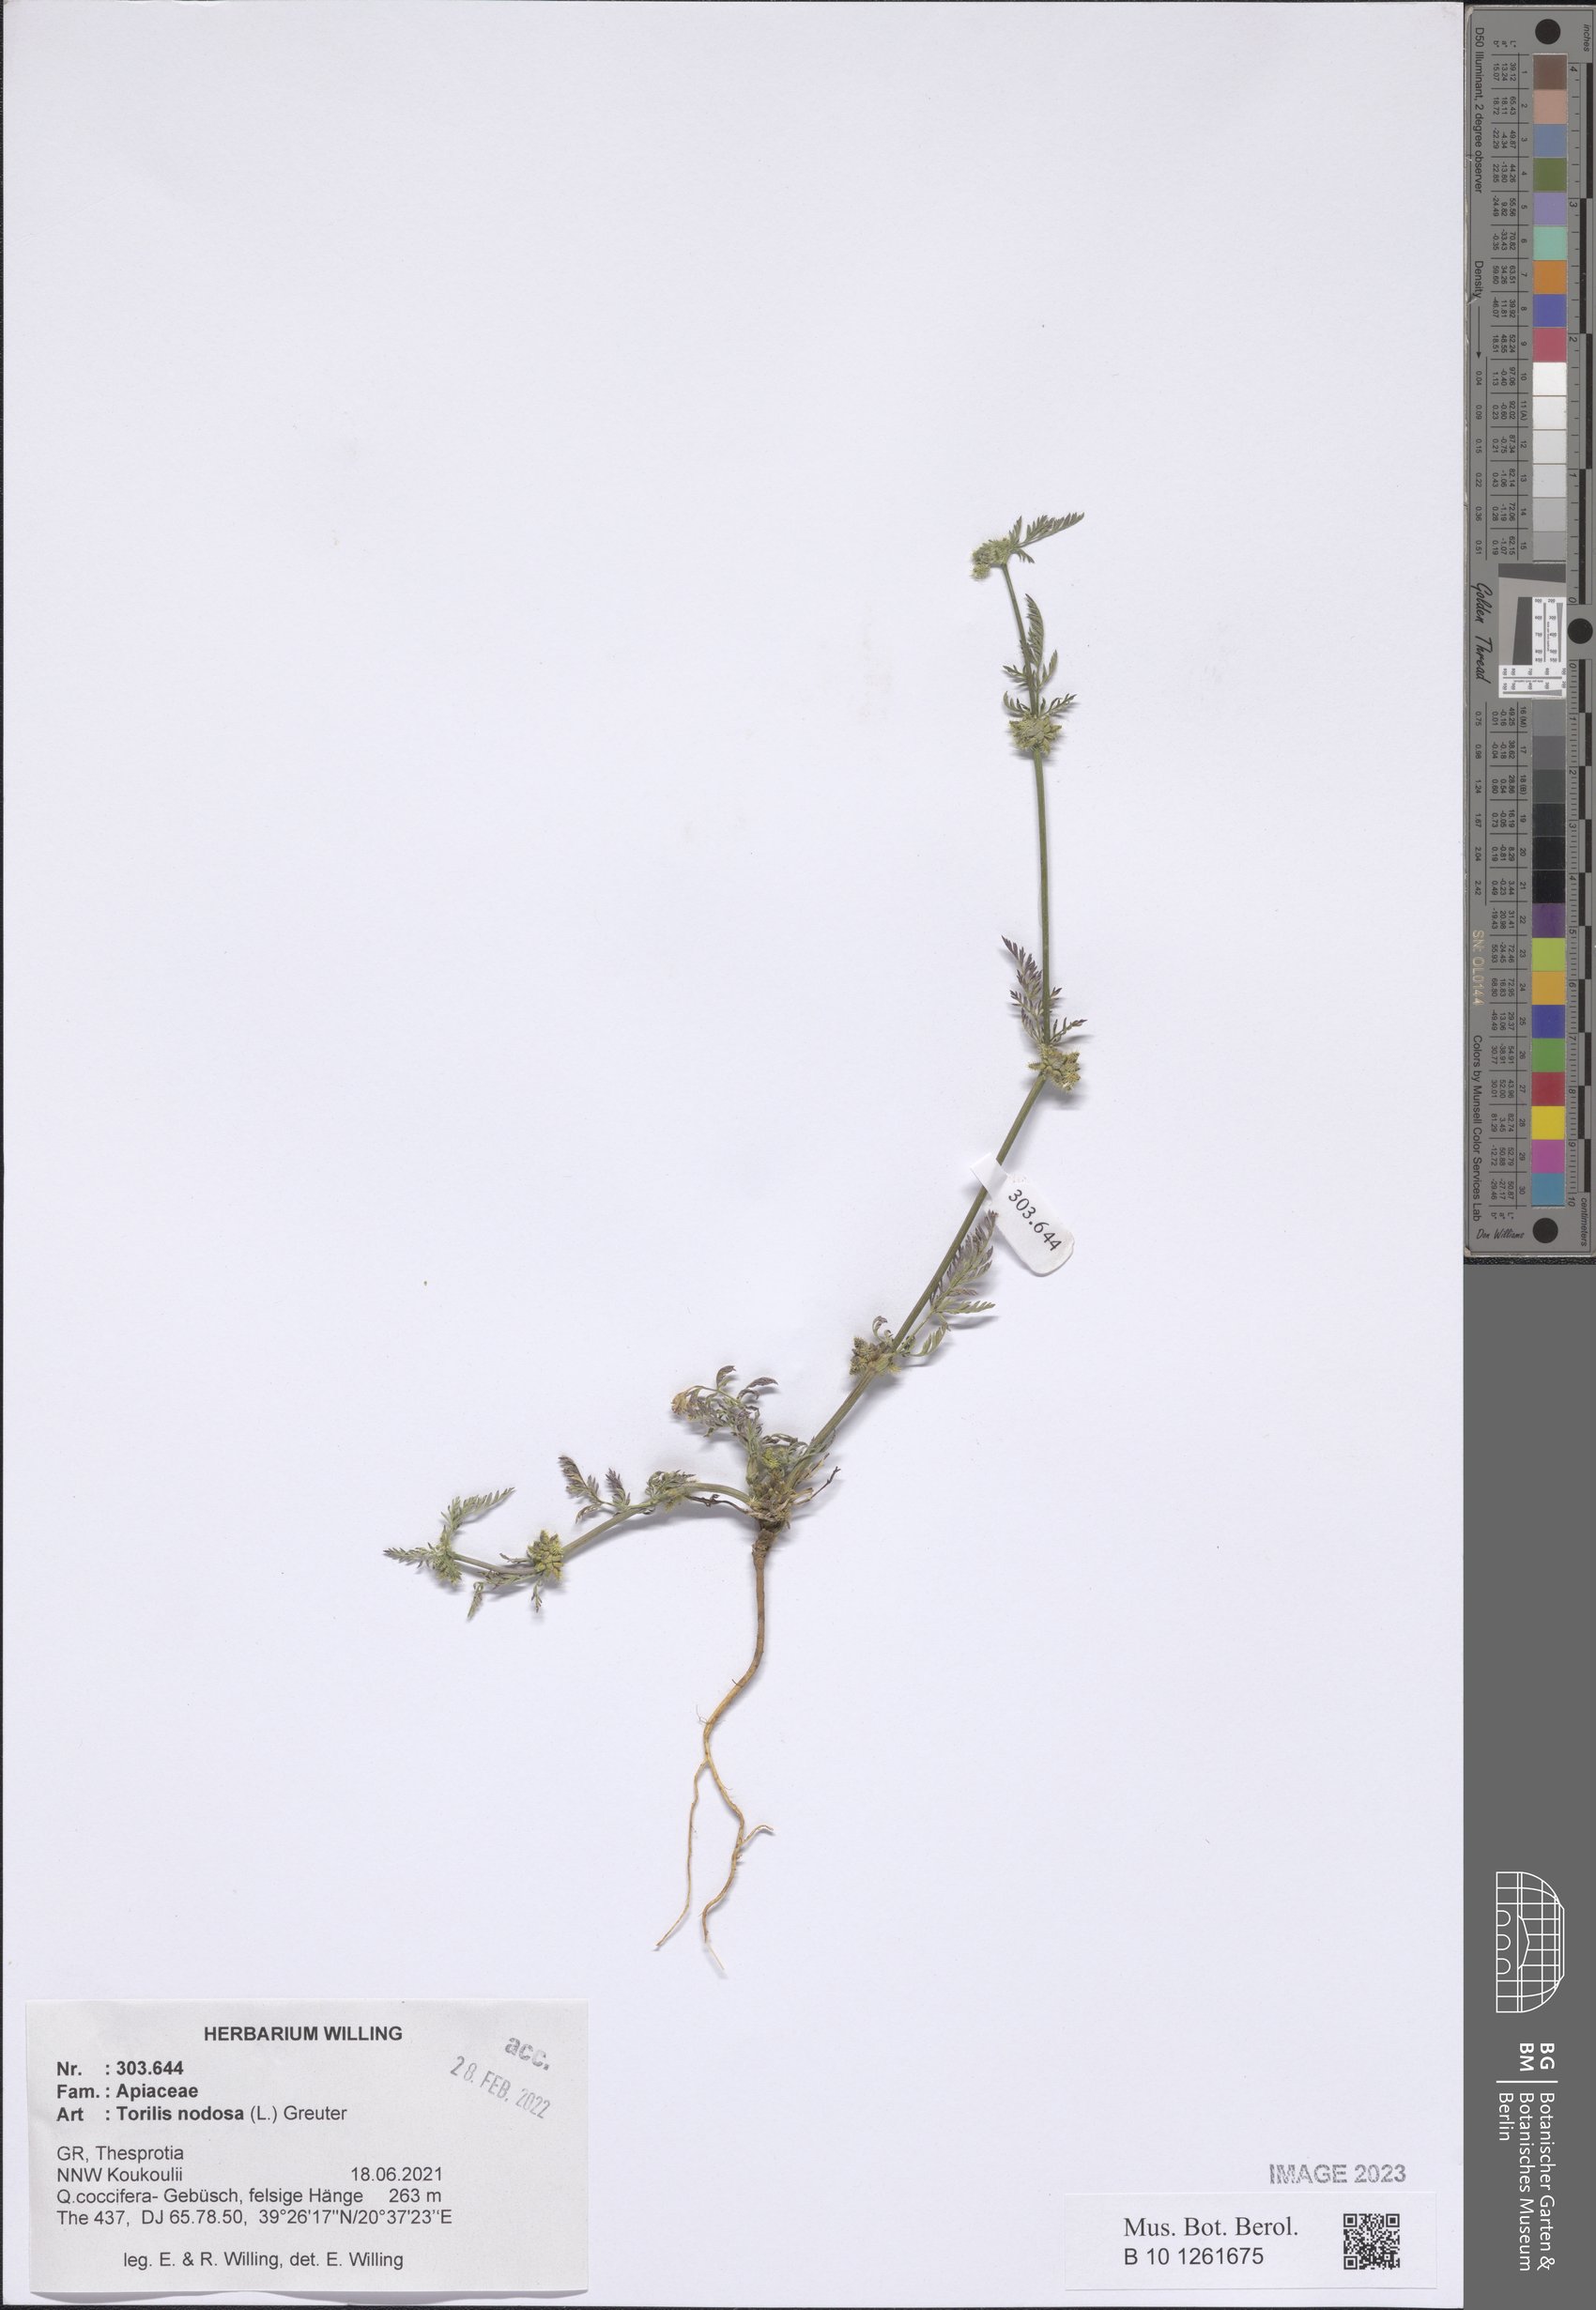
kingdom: Plantae
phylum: Tracheophyta
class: Magnoliopsida
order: Apiales
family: Apiaceae
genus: Torilis
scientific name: Torilis nodosa
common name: Knotted hedge-parsley
